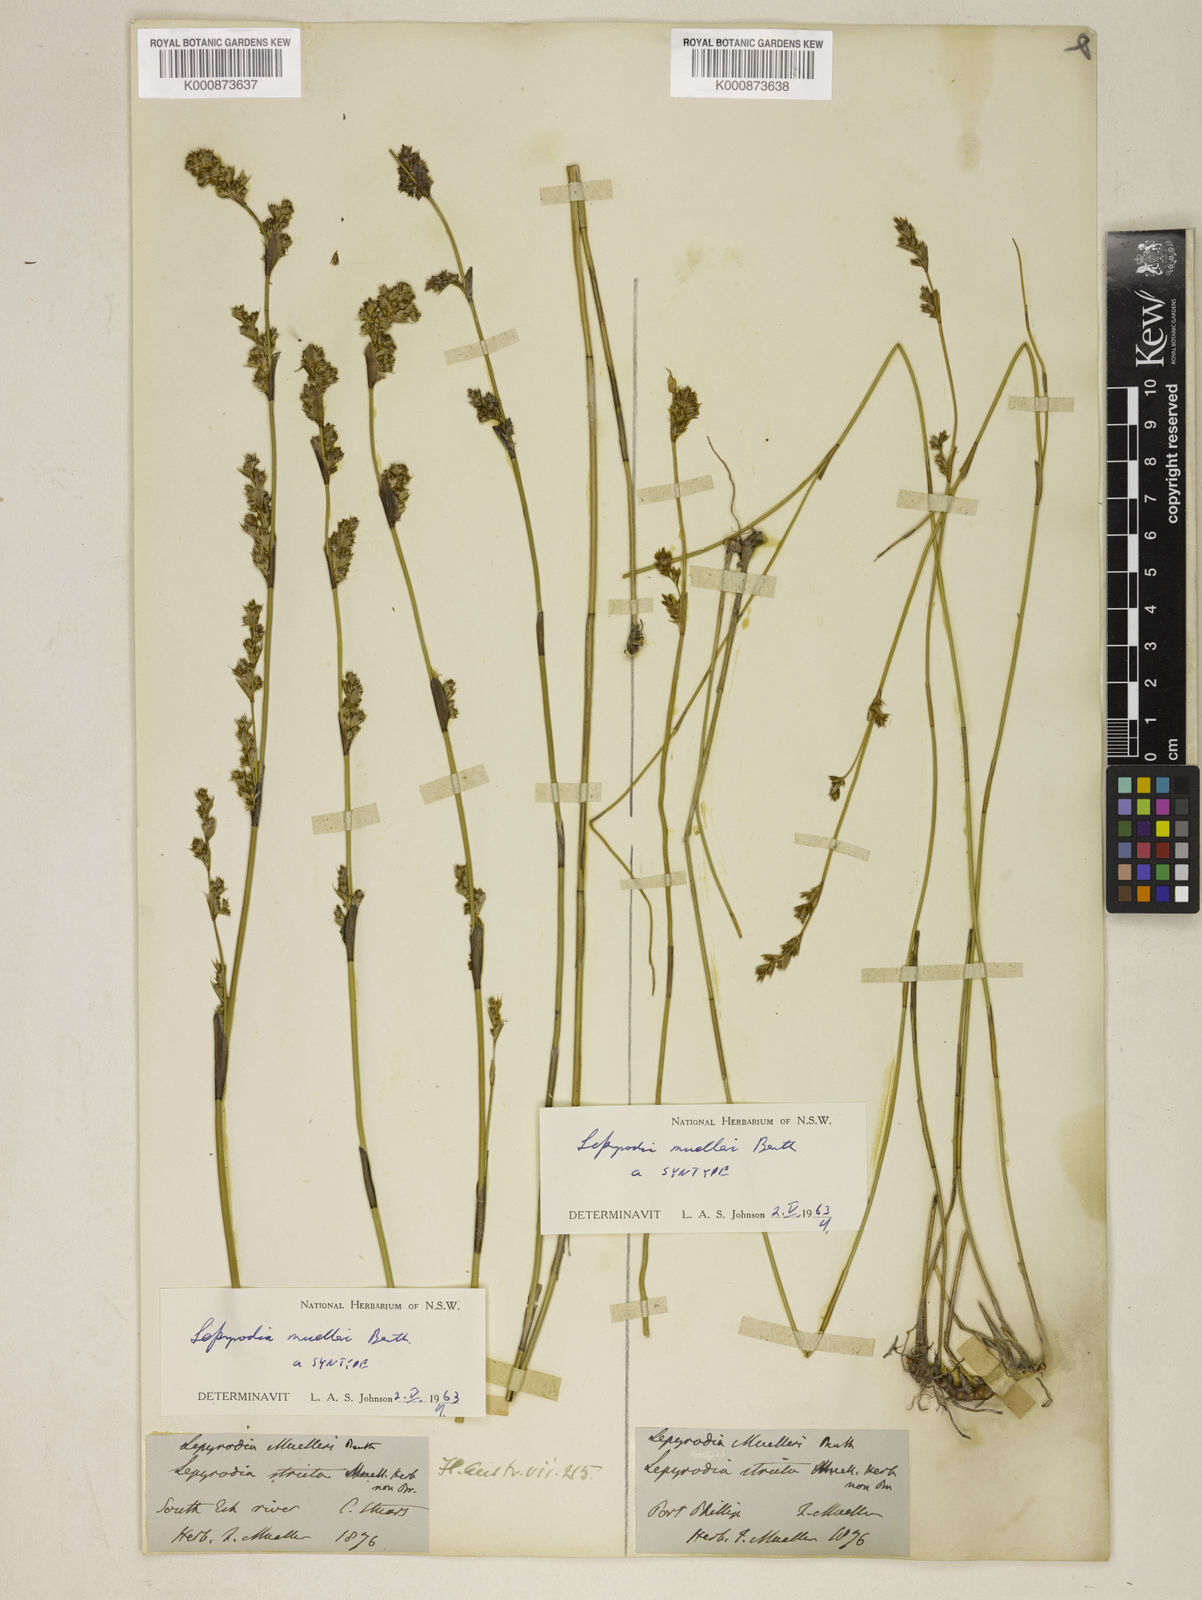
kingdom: Plantae
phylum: Tracheophyta
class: Liliopsida
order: Poales
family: Restionaceae
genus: Lepyrodia
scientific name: Lepyrodia muelleri
